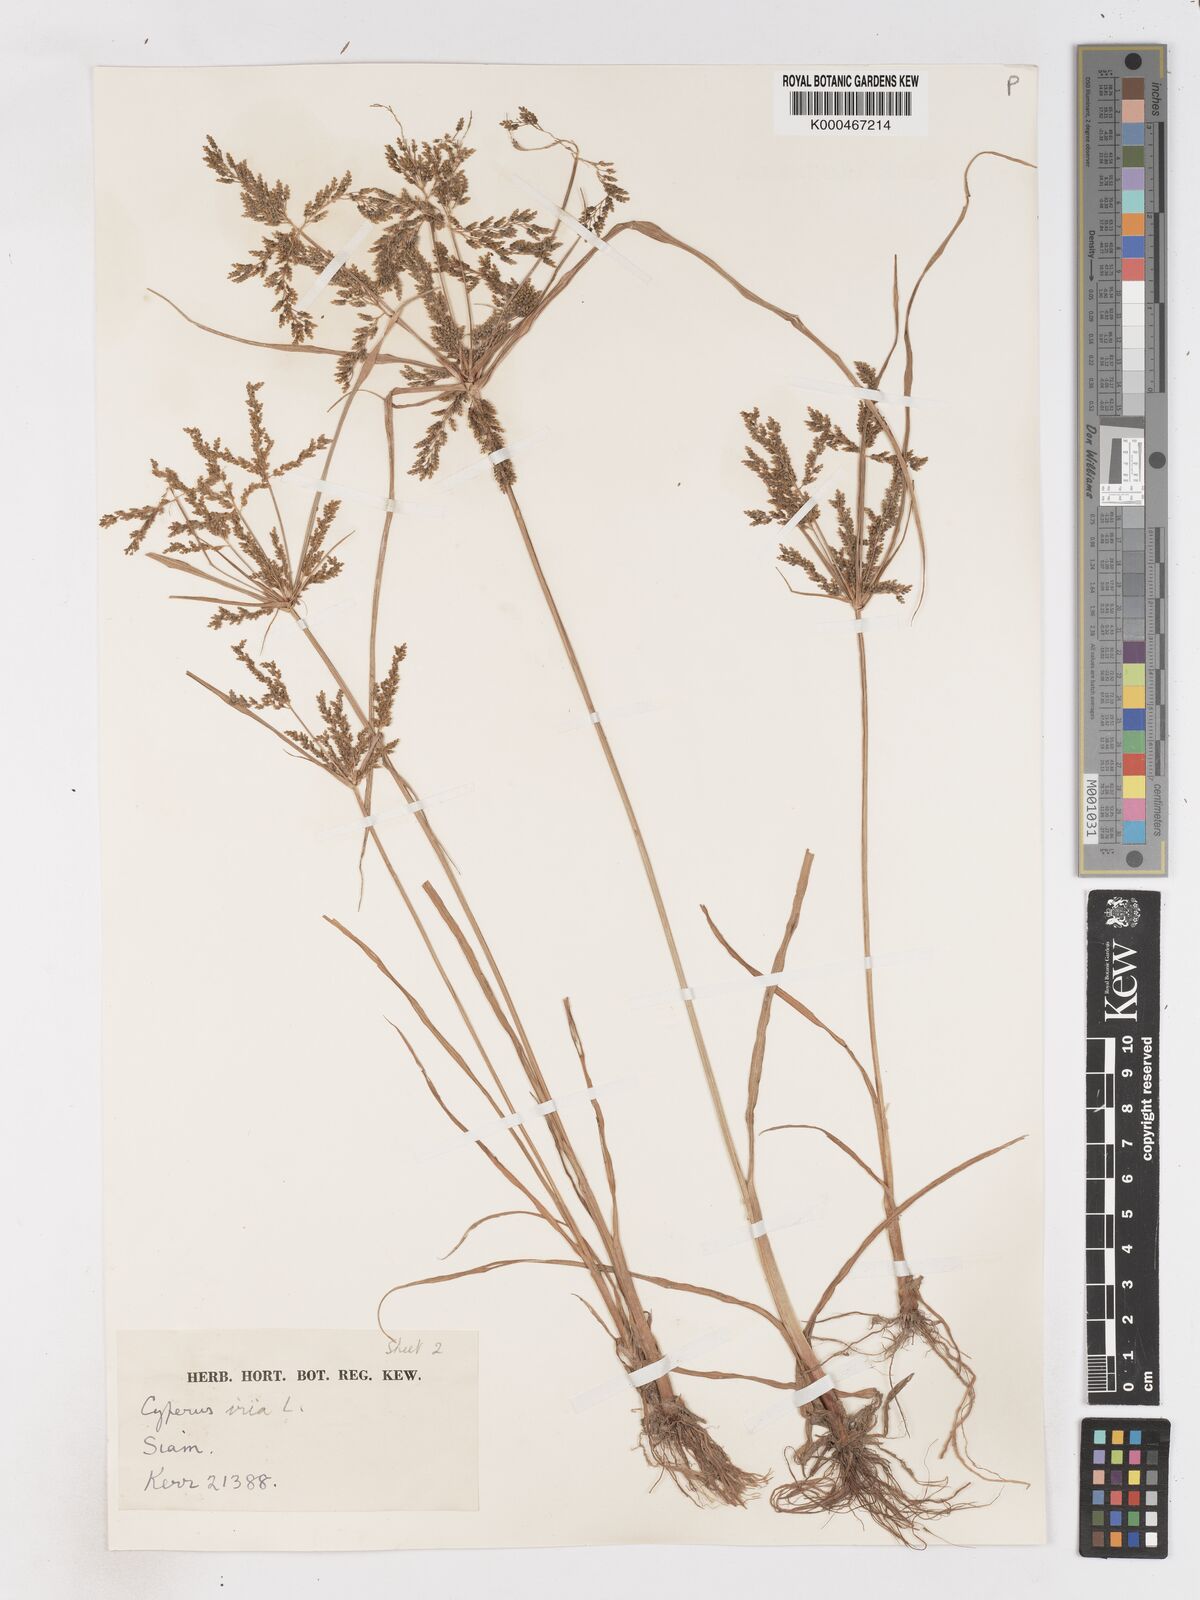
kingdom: Plantae
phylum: Tracheophyta
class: Liliopsida
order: Poales
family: Cyperaceae
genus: Cyperus
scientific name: Cyperus iria
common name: Ricefield flatsedge
